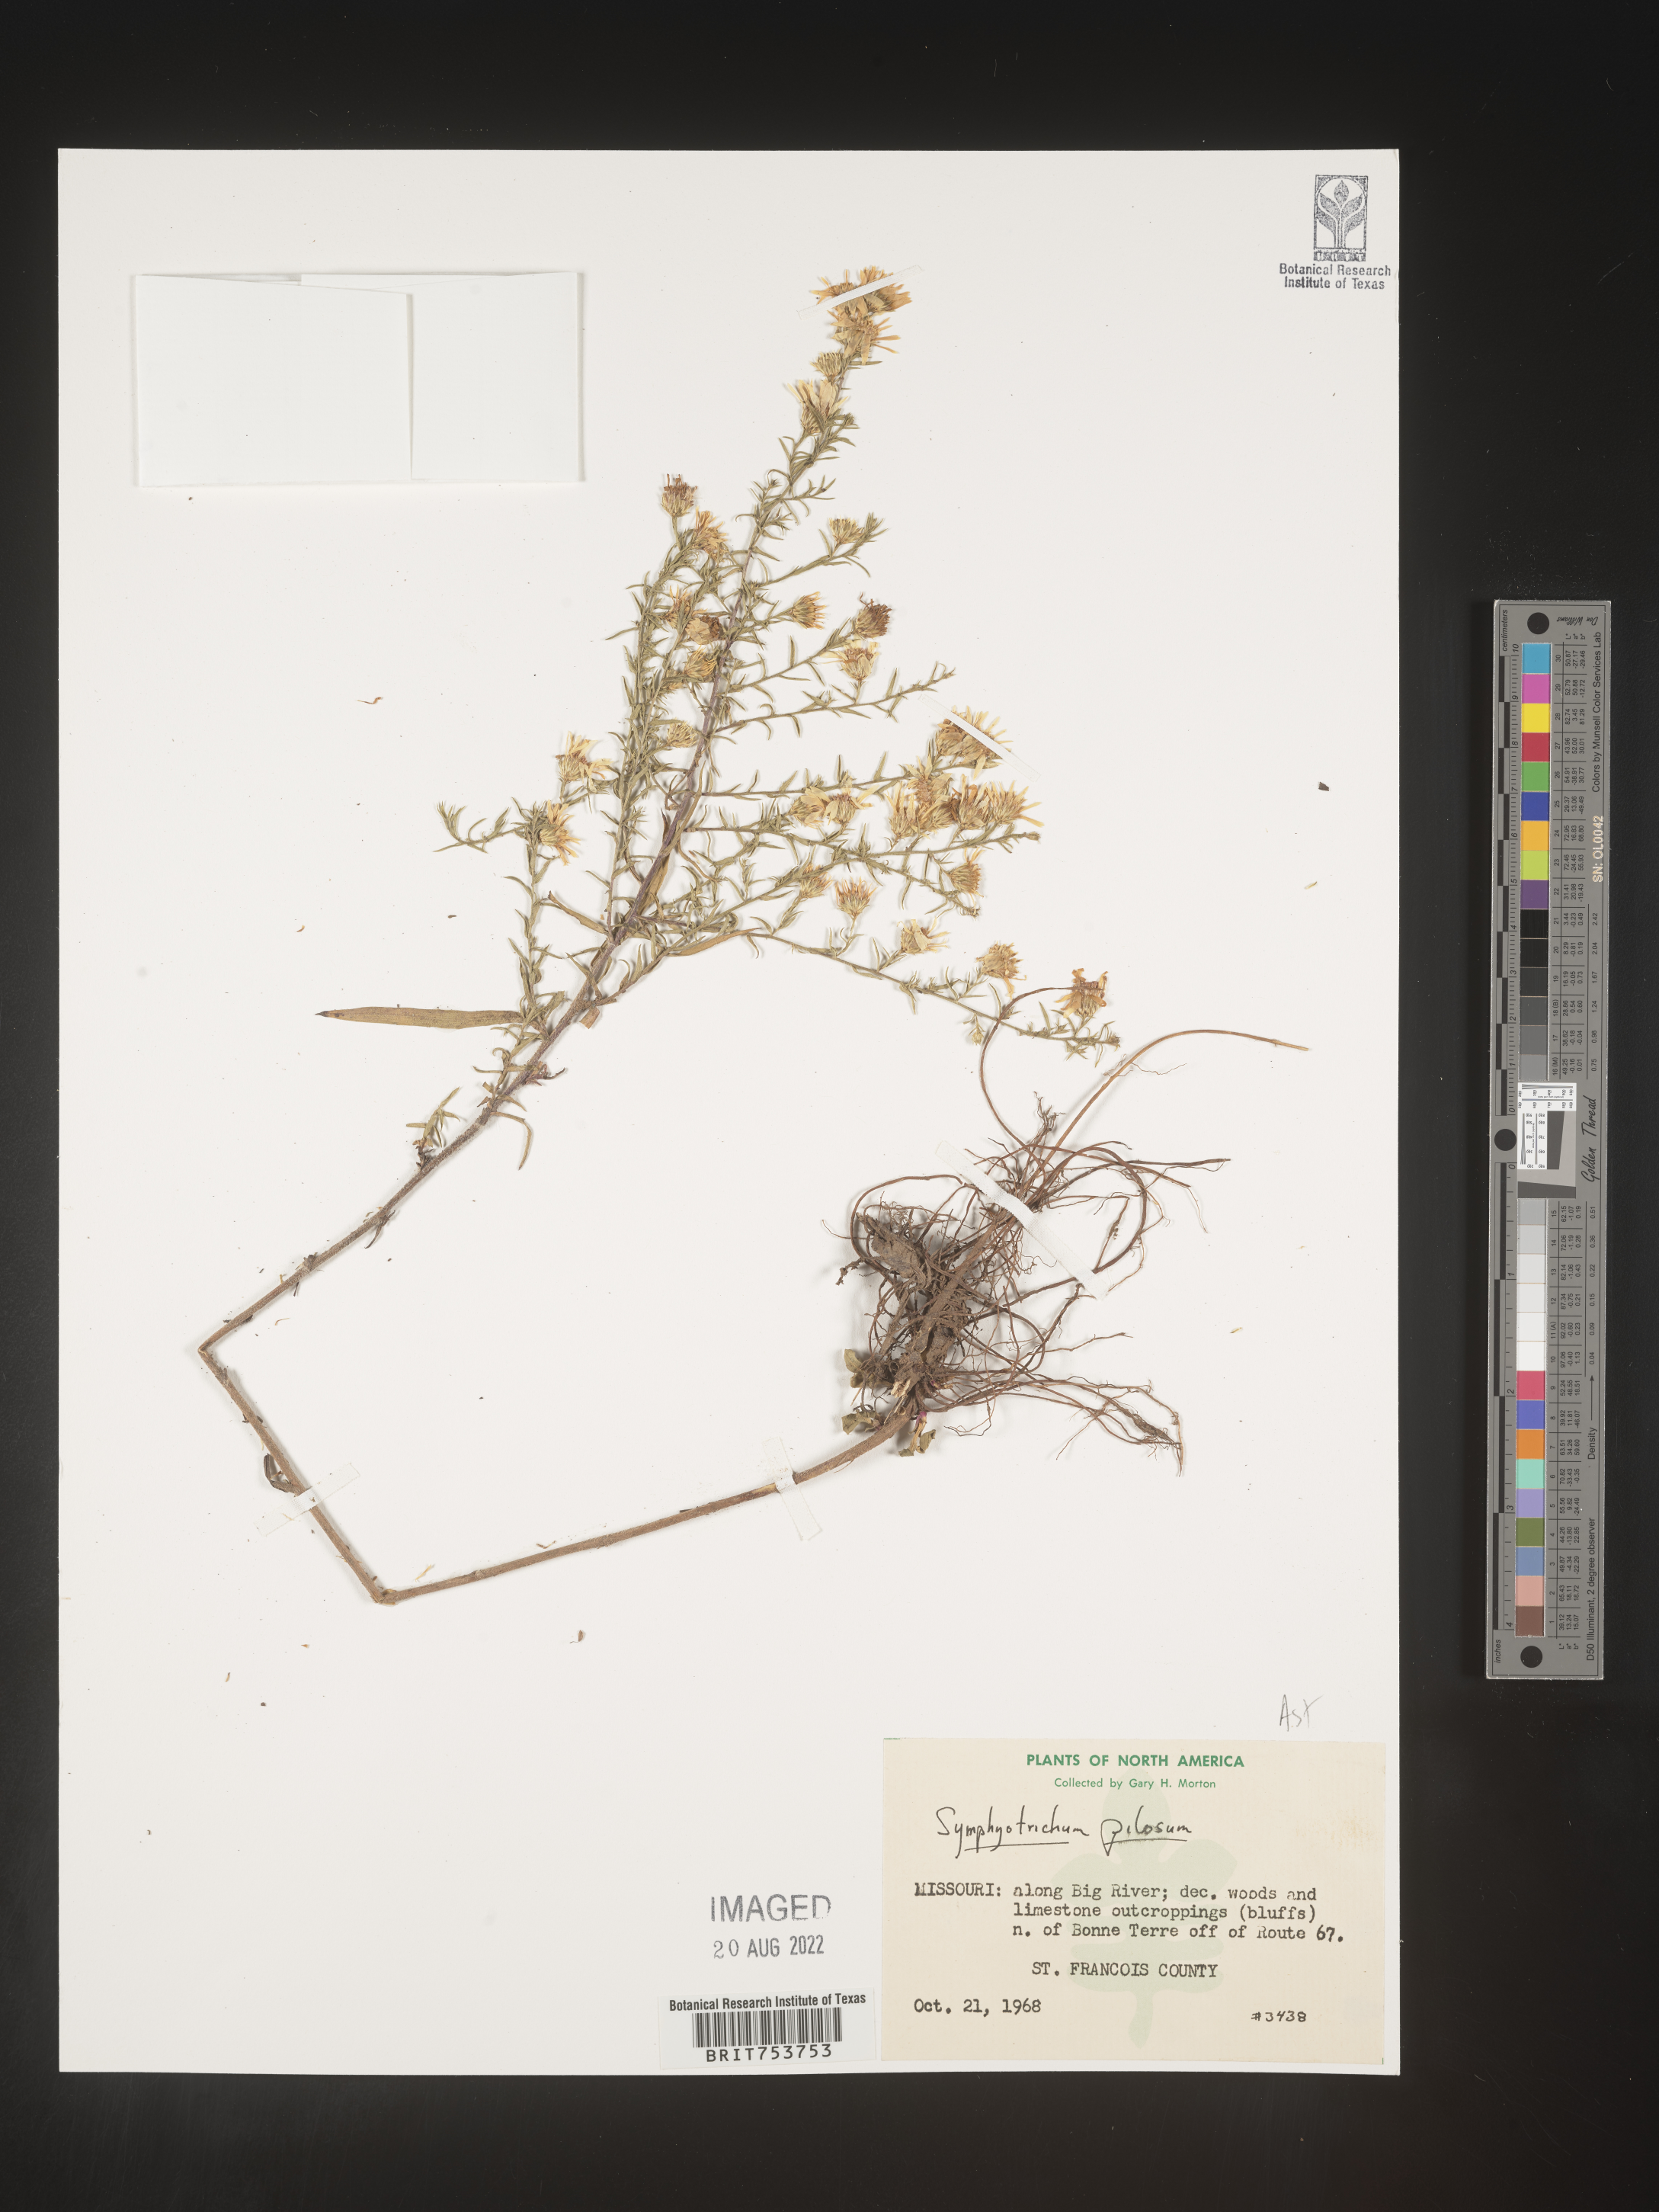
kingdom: Plantae
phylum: Tracheophyta
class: Magnoliopsida
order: Asterales
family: Asteraceae
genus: Symphyotrichum
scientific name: Symphyotrichum pilosum
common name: Awl aster
